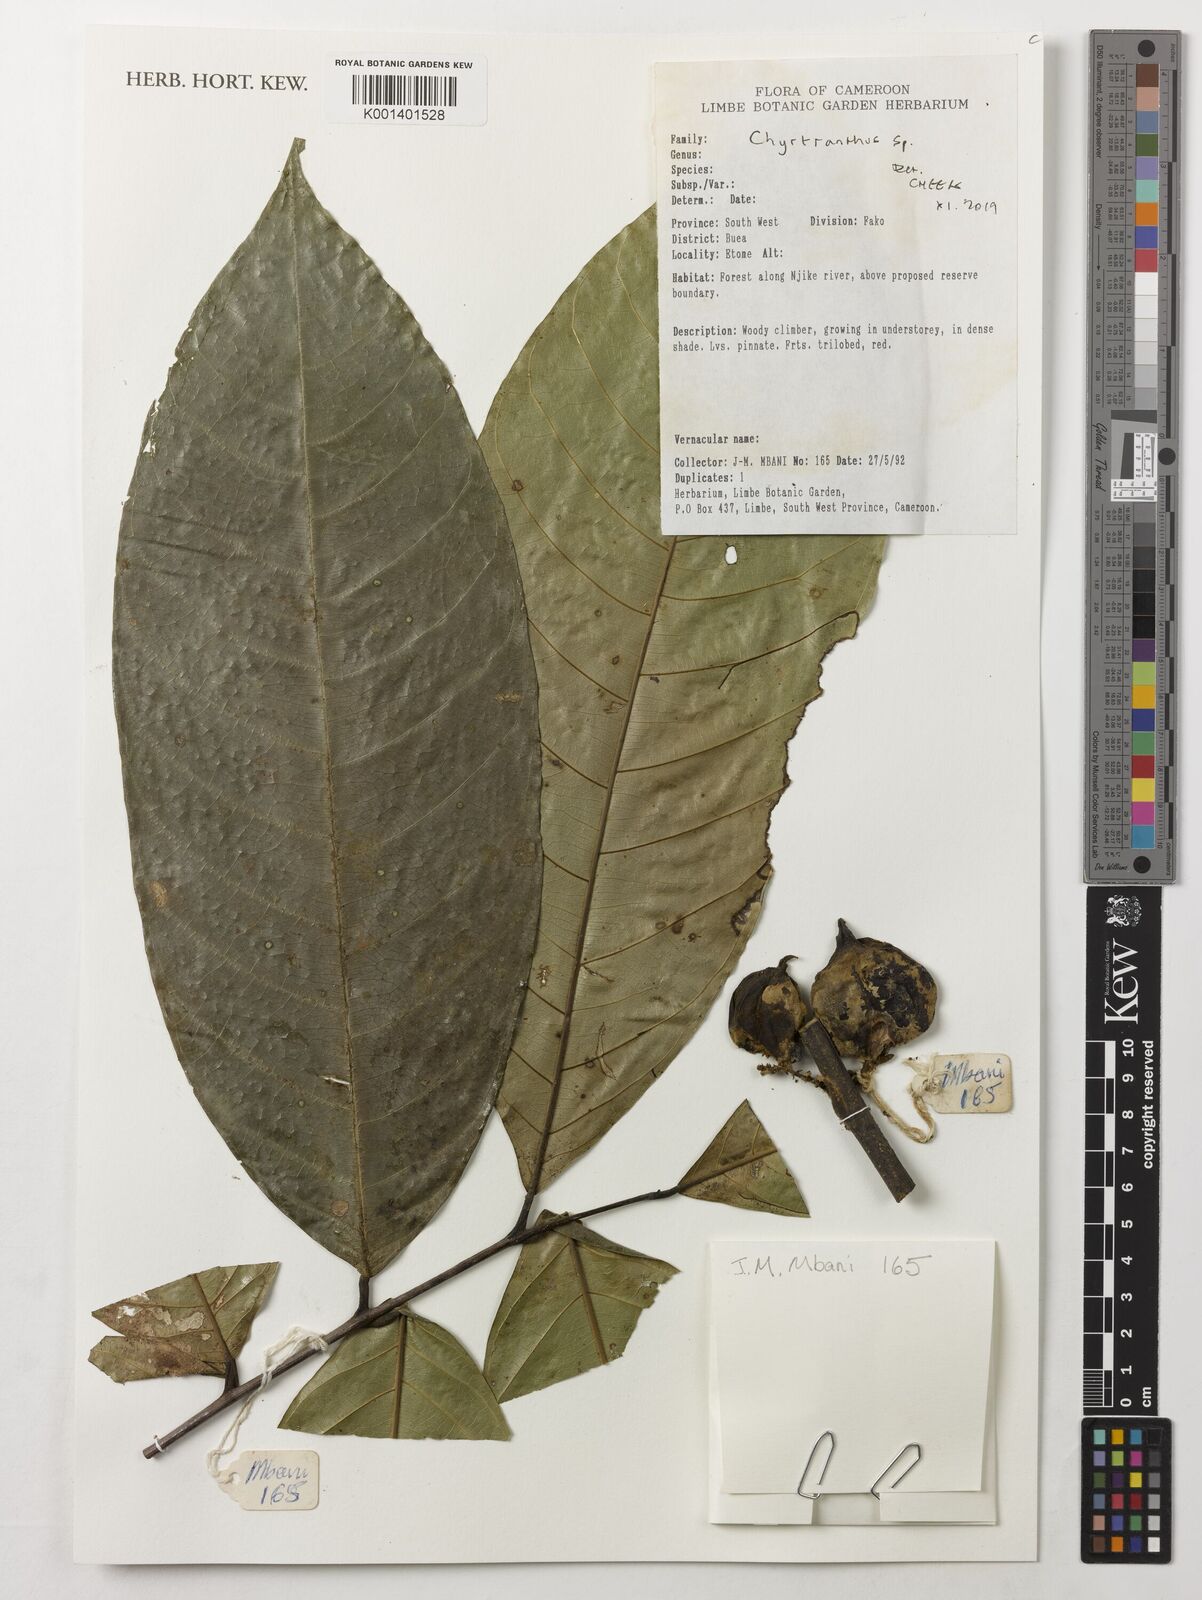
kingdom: Plantae
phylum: Tracheophyta
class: Magnoliopsida
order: Sapindales
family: Sapindaceae
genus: Chytranthus
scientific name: Chytranthus
